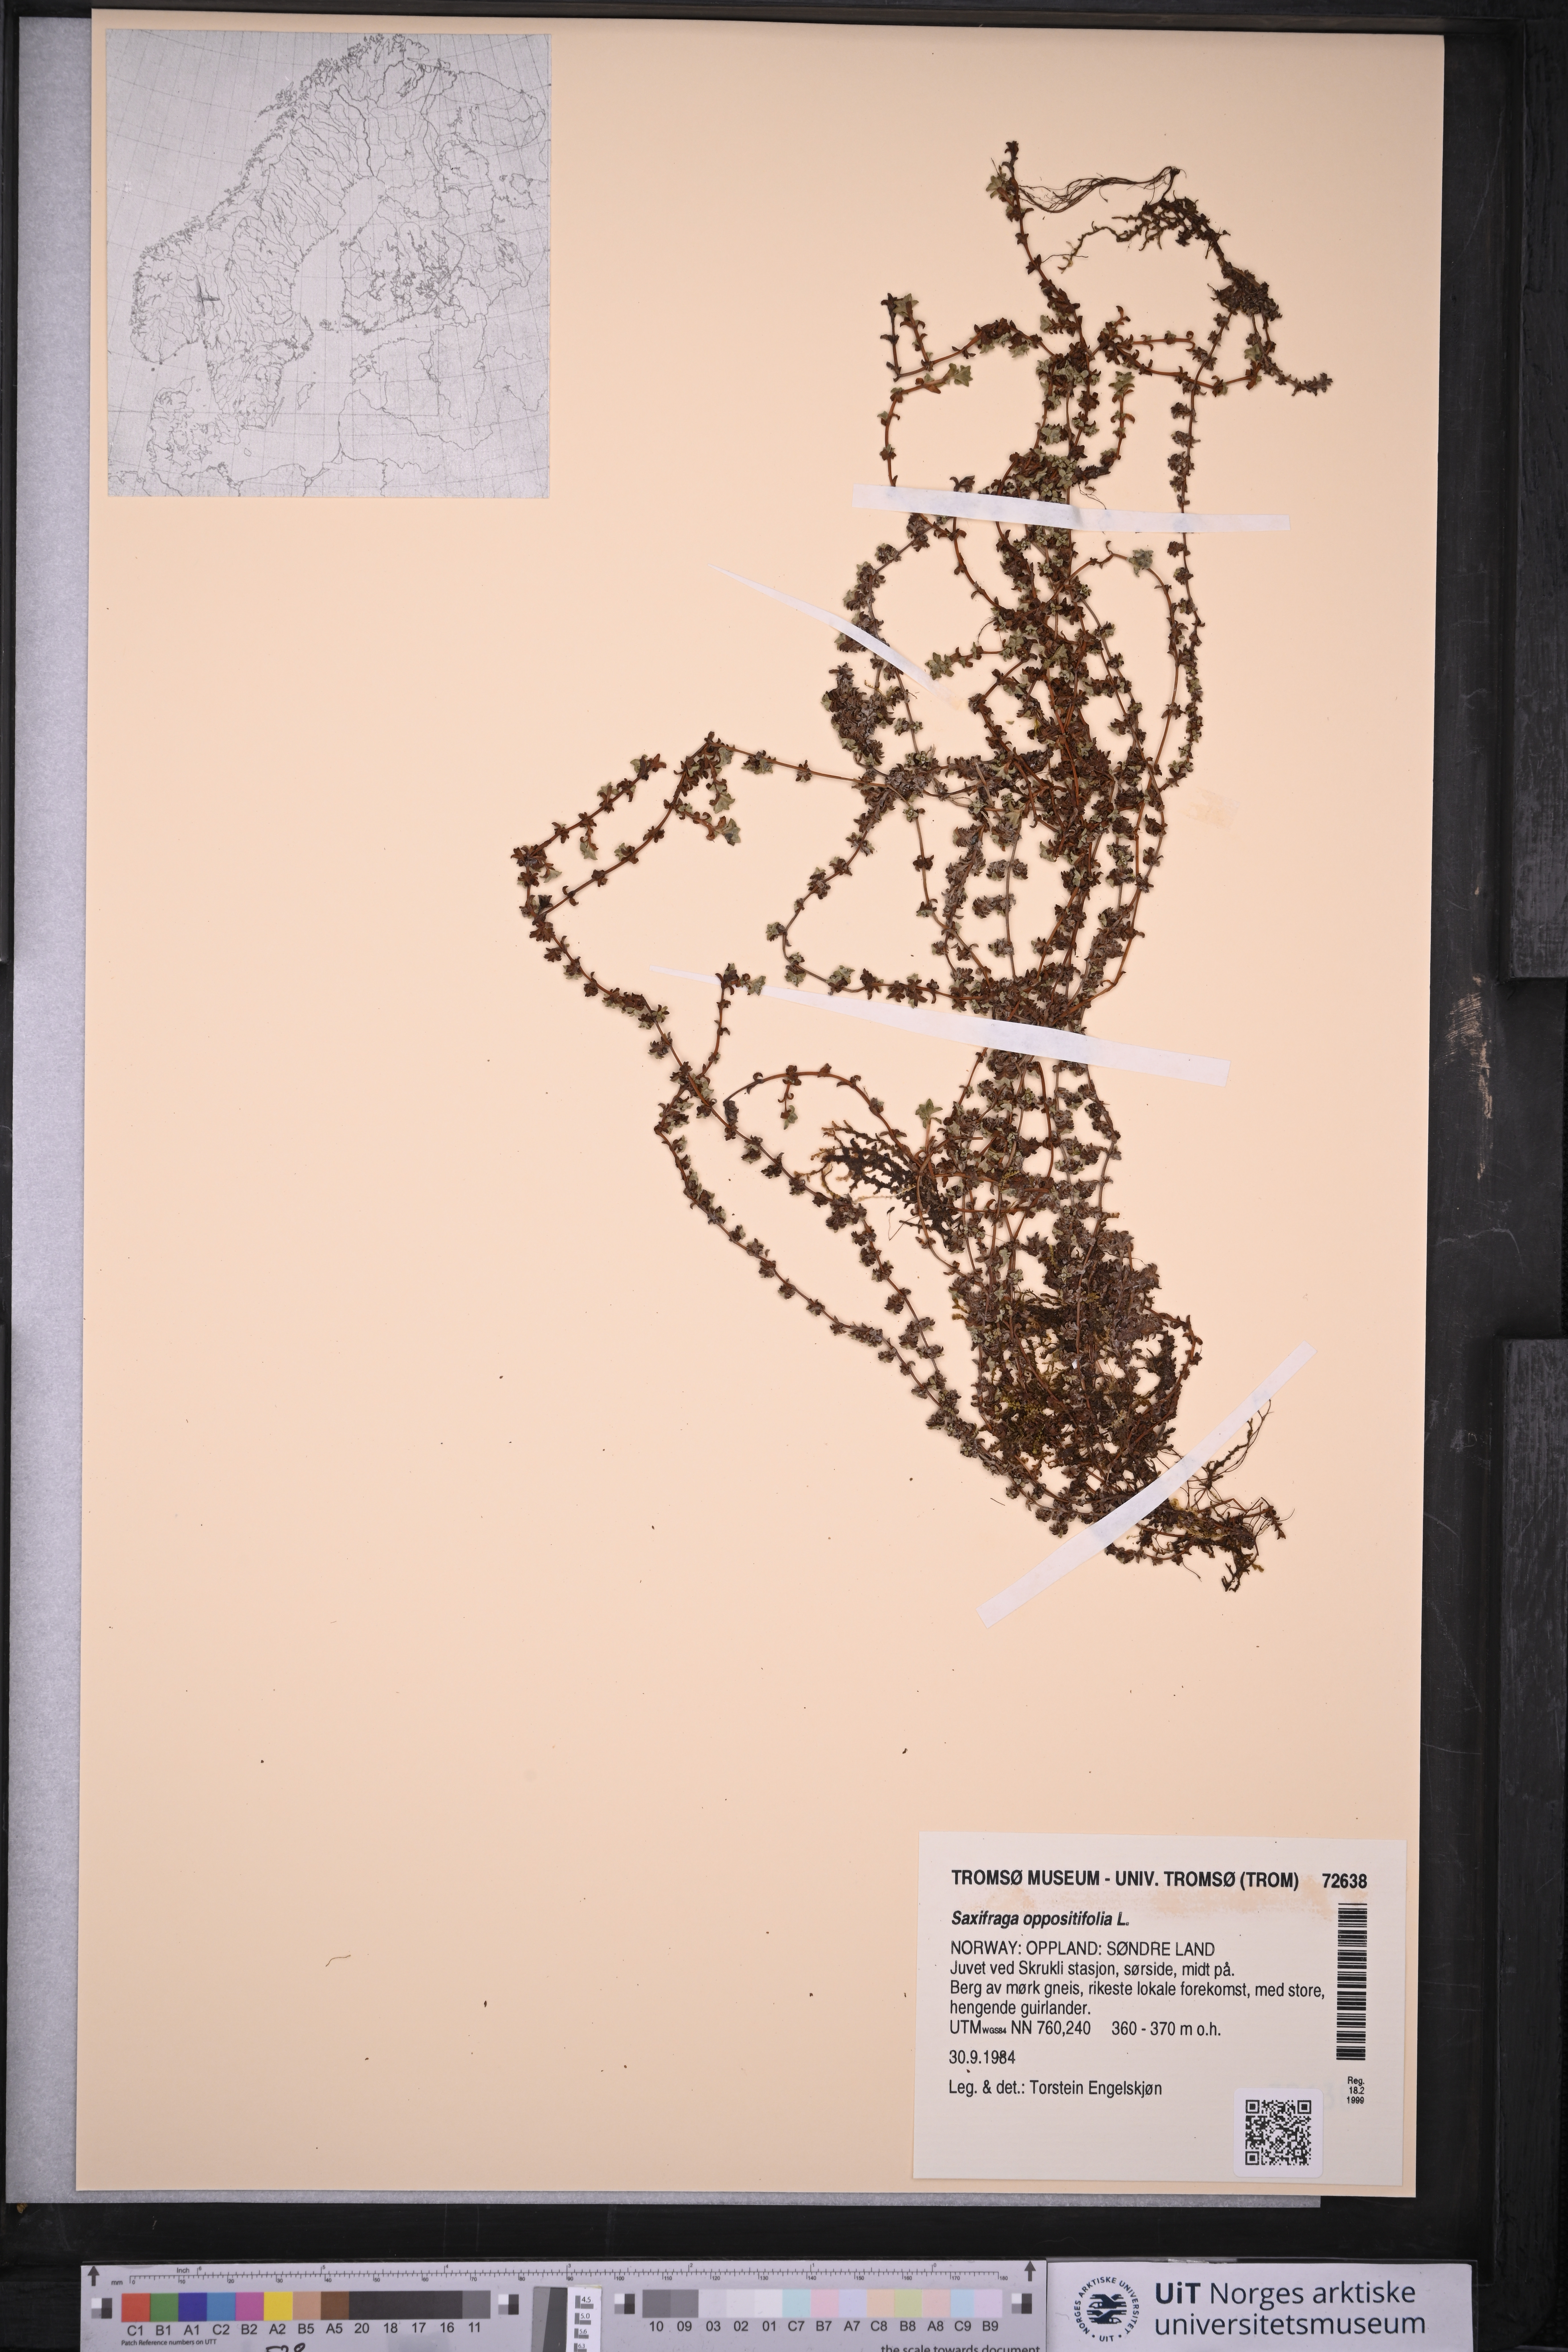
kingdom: Plantae
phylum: Tracheophyta
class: Magnoliopsida
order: Saxifragales
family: Saxifragaceae
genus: Saxifraga
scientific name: Saxifraga oppositifolia
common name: Purple saxifrage
